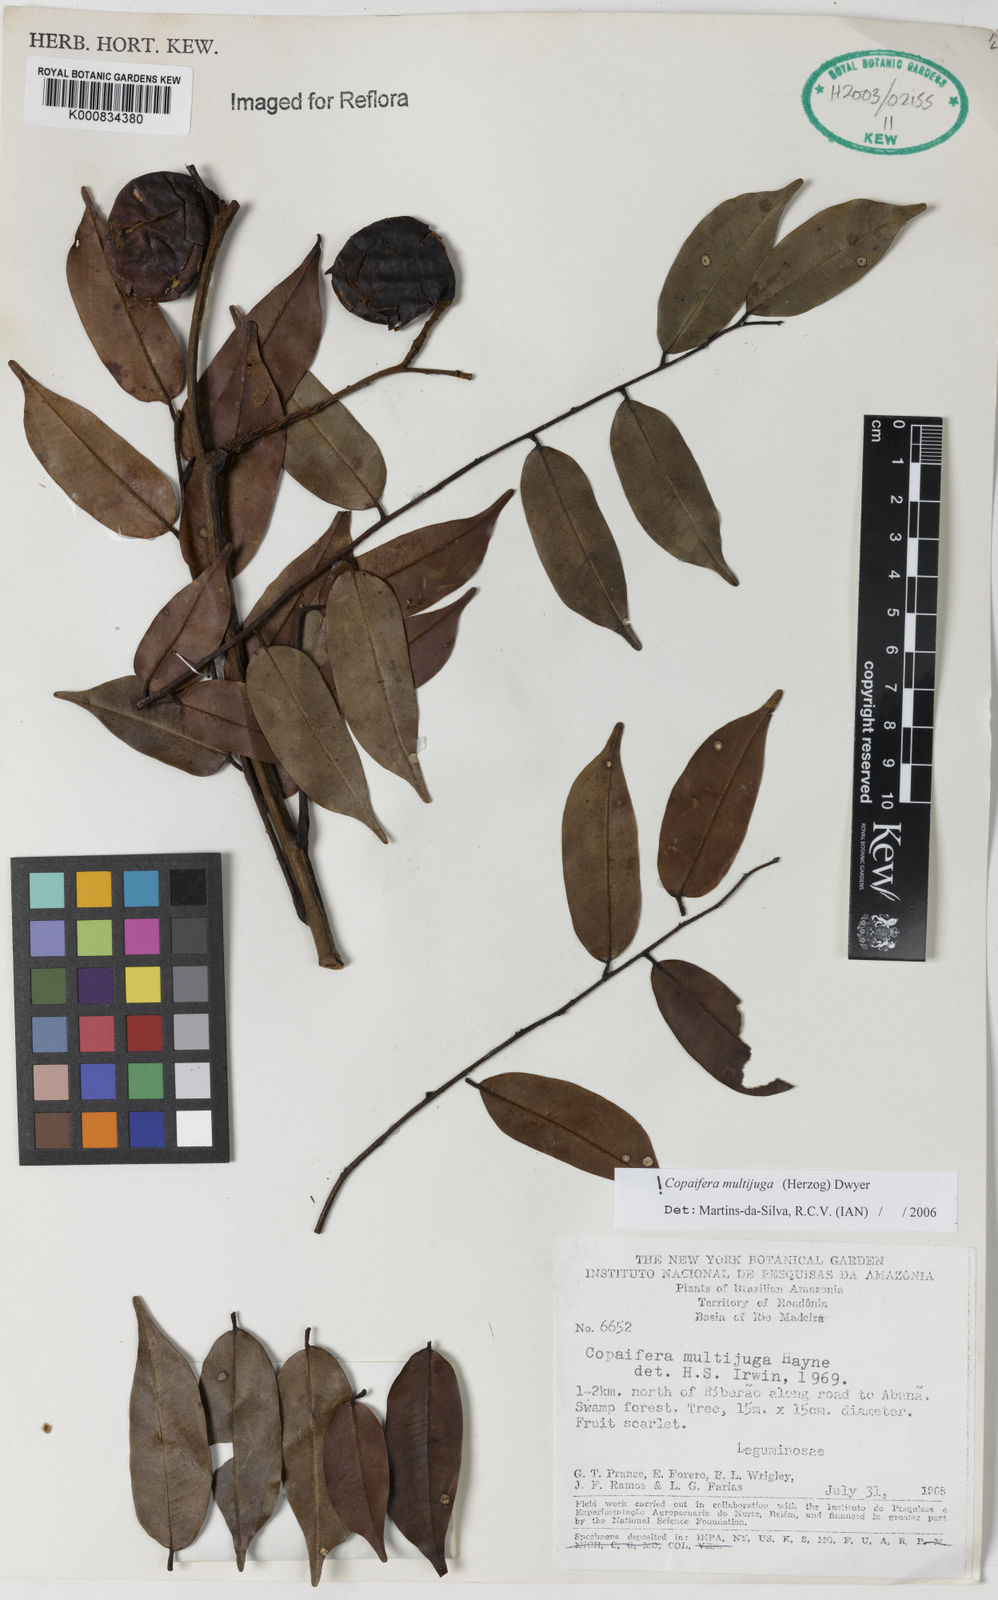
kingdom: Plantae
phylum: Tracheophyta
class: Magnoliopsida
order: Fabales
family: Fabaceae
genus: Copaifera
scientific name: Copaifera multijuga
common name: Brazilian copaiba
